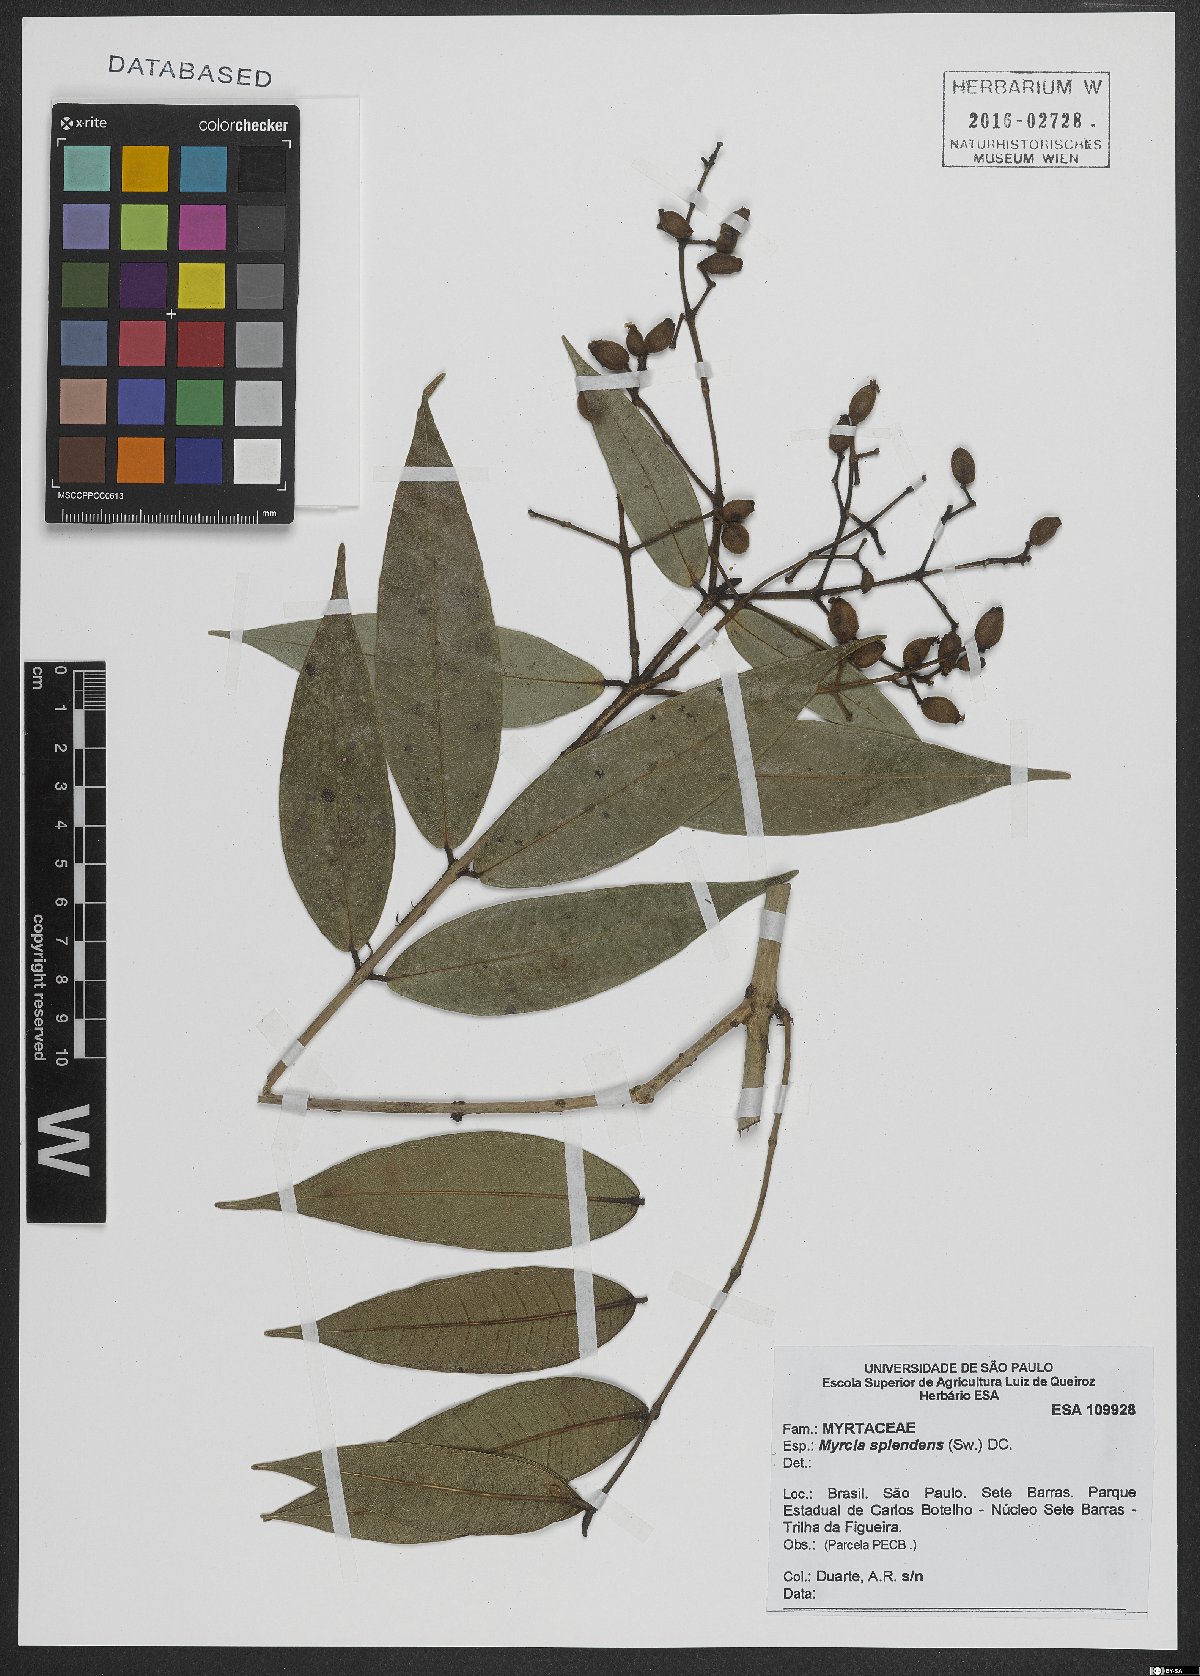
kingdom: Plantae
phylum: Tracheophyta
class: Magnoliopsida
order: Myrtales
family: Myrtaceae
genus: Myrcia
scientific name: Myrcia splendens
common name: Surinam cherry
